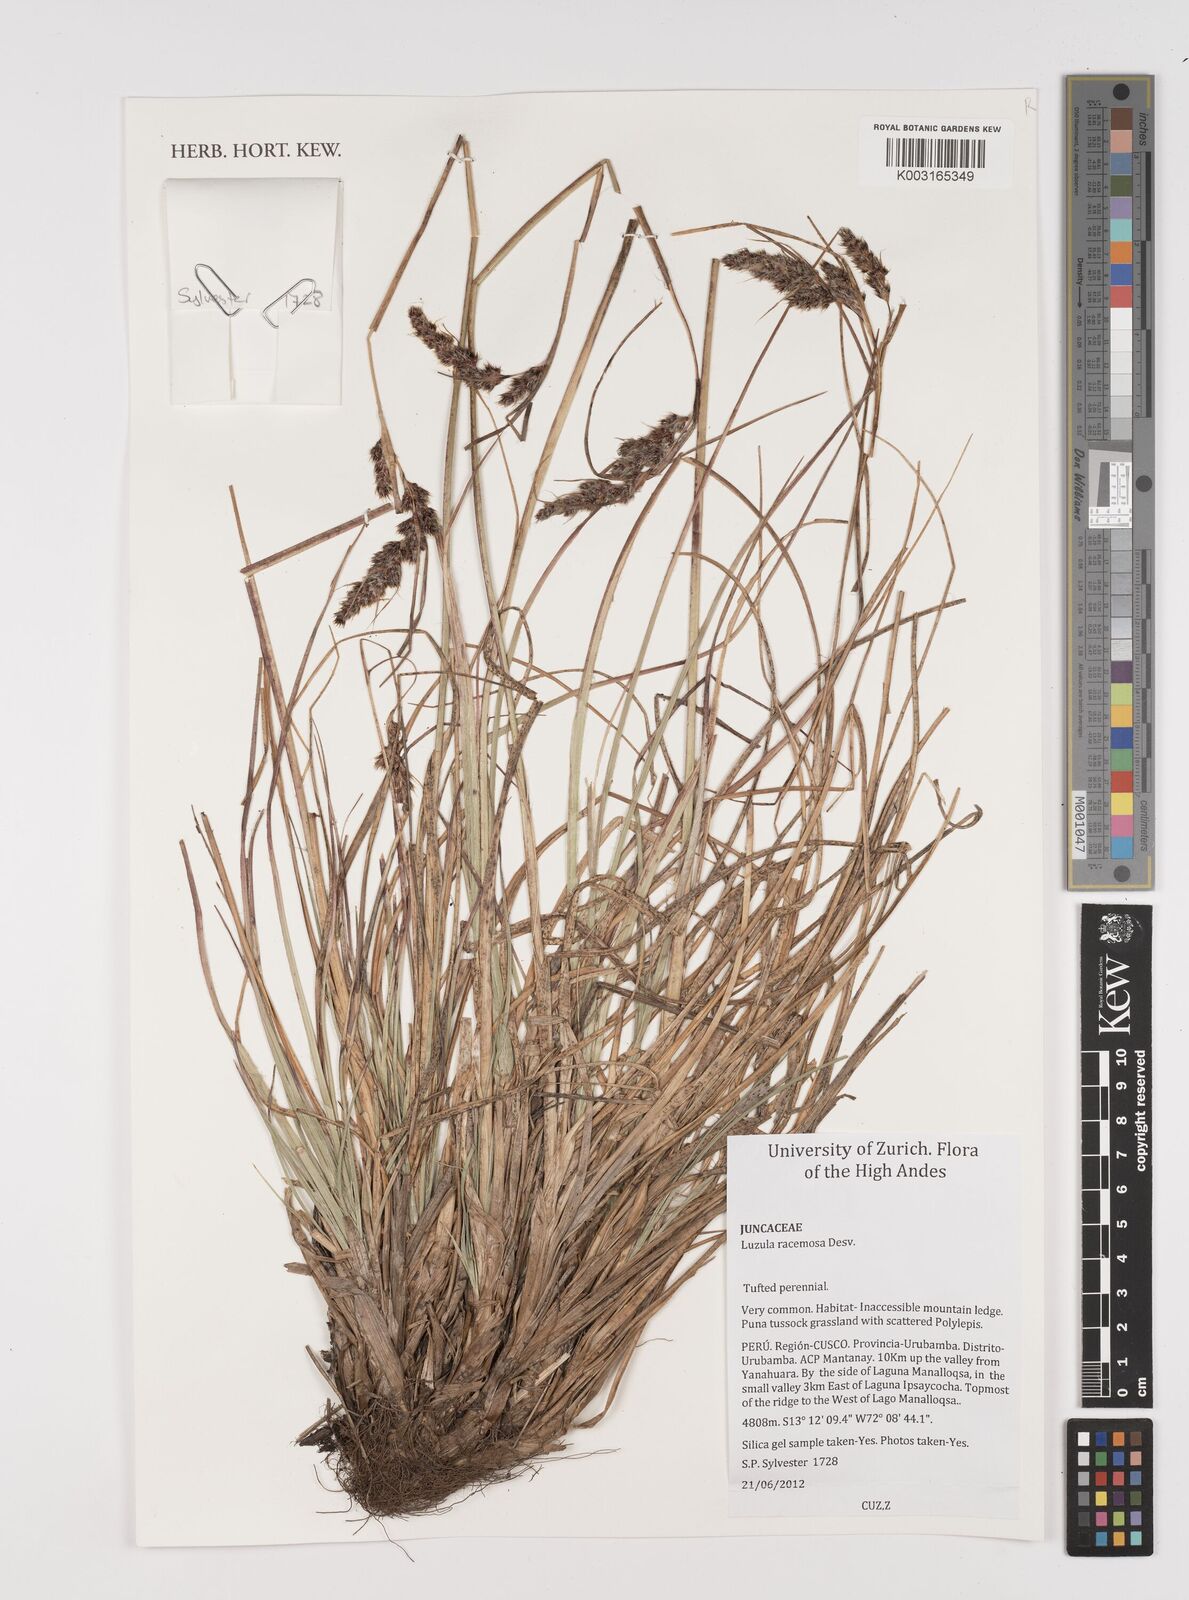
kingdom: Plantae
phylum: Tracheophyta
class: Liliopsida
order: Poales
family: Juncaceae
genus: Luzula
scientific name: Luzula racemosa
